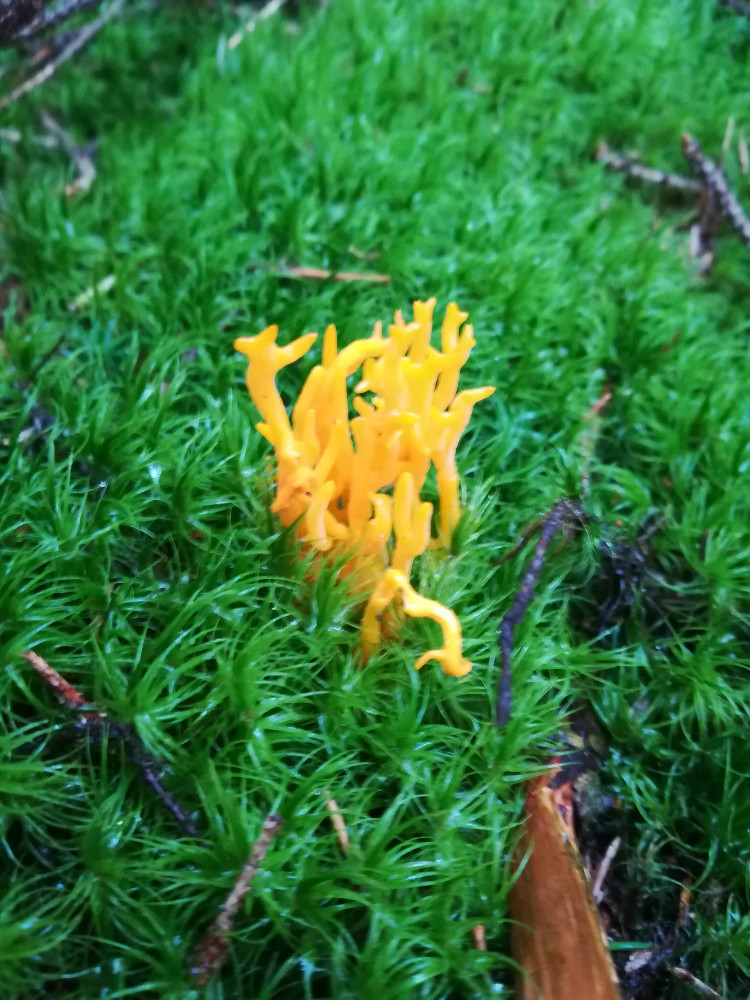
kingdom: Fungi
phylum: Basidiomycota
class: Dacrymycetes
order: Dacrymycetales
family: Dacrymycetaceae
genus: Calocera
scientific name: Calocera viscosa
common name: almindelig guldgaffel
